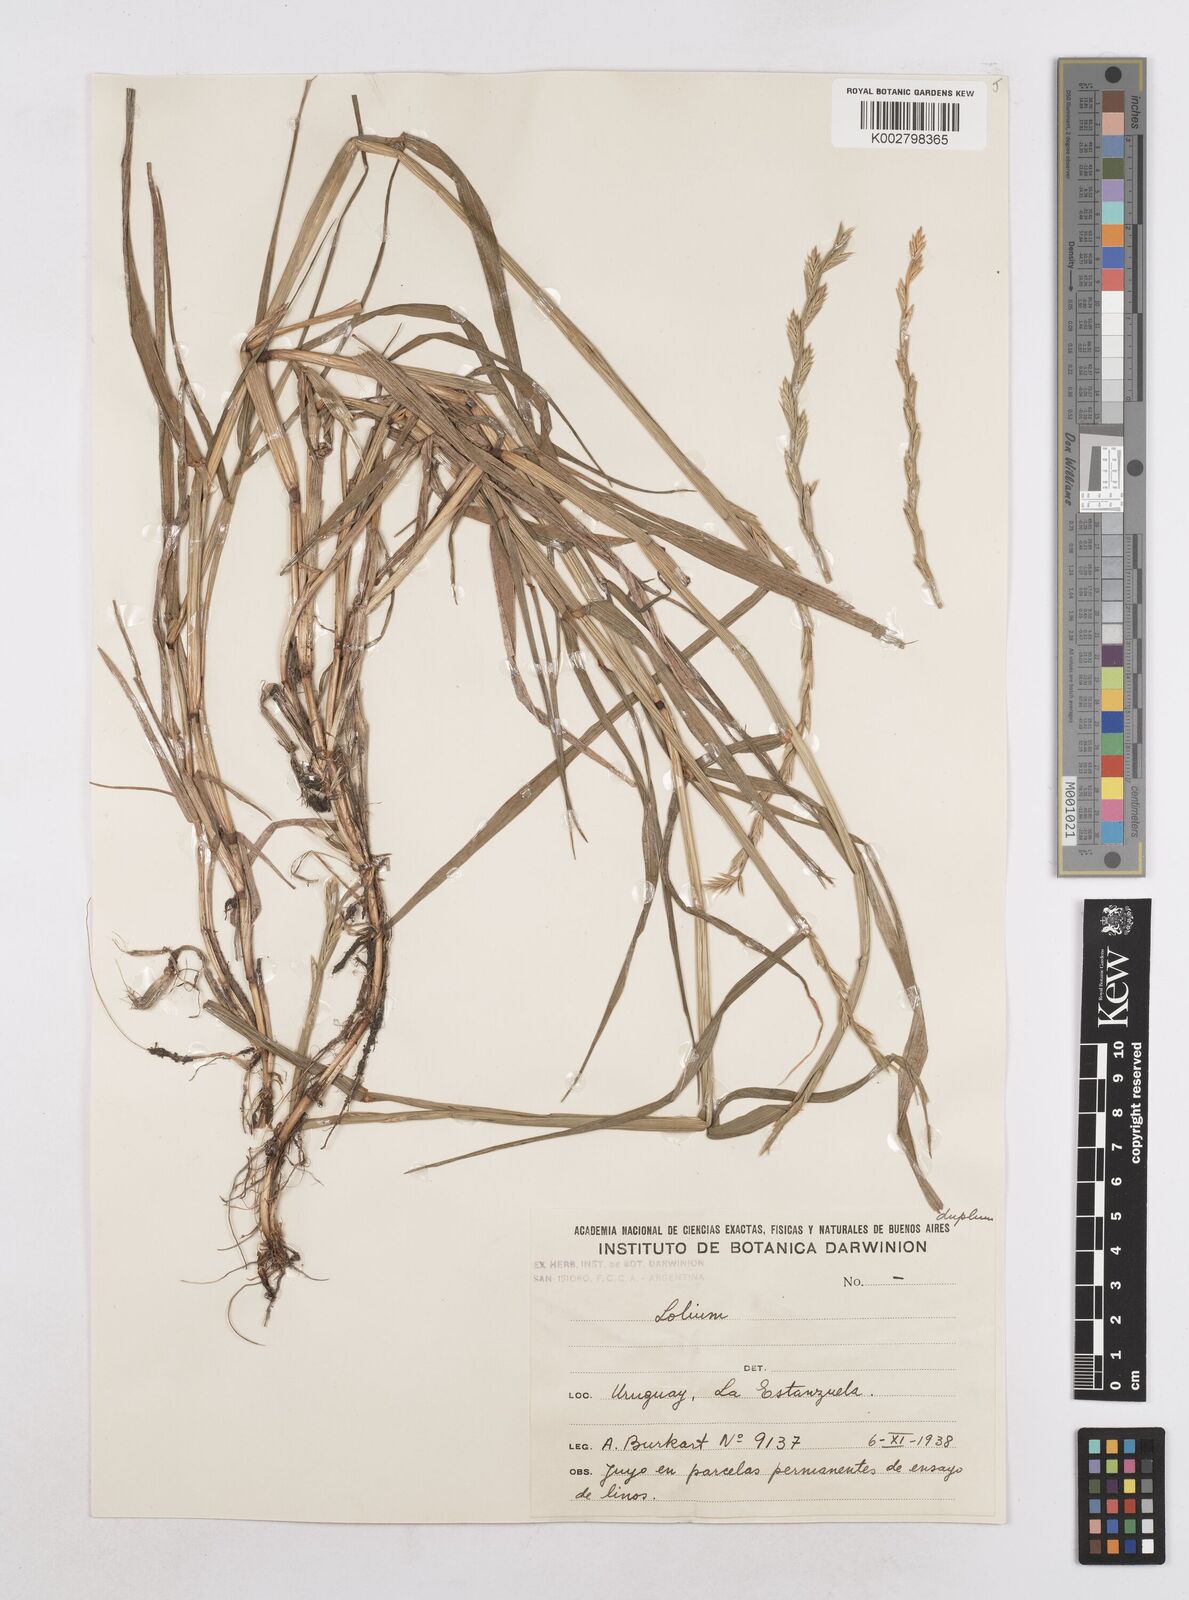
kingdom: Plantae
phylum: Tracheophyta
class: Liliopsida
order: Poales
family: Poaceae
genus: Lolium
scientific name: Lolium multiflorum
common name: Annual ryegrass
